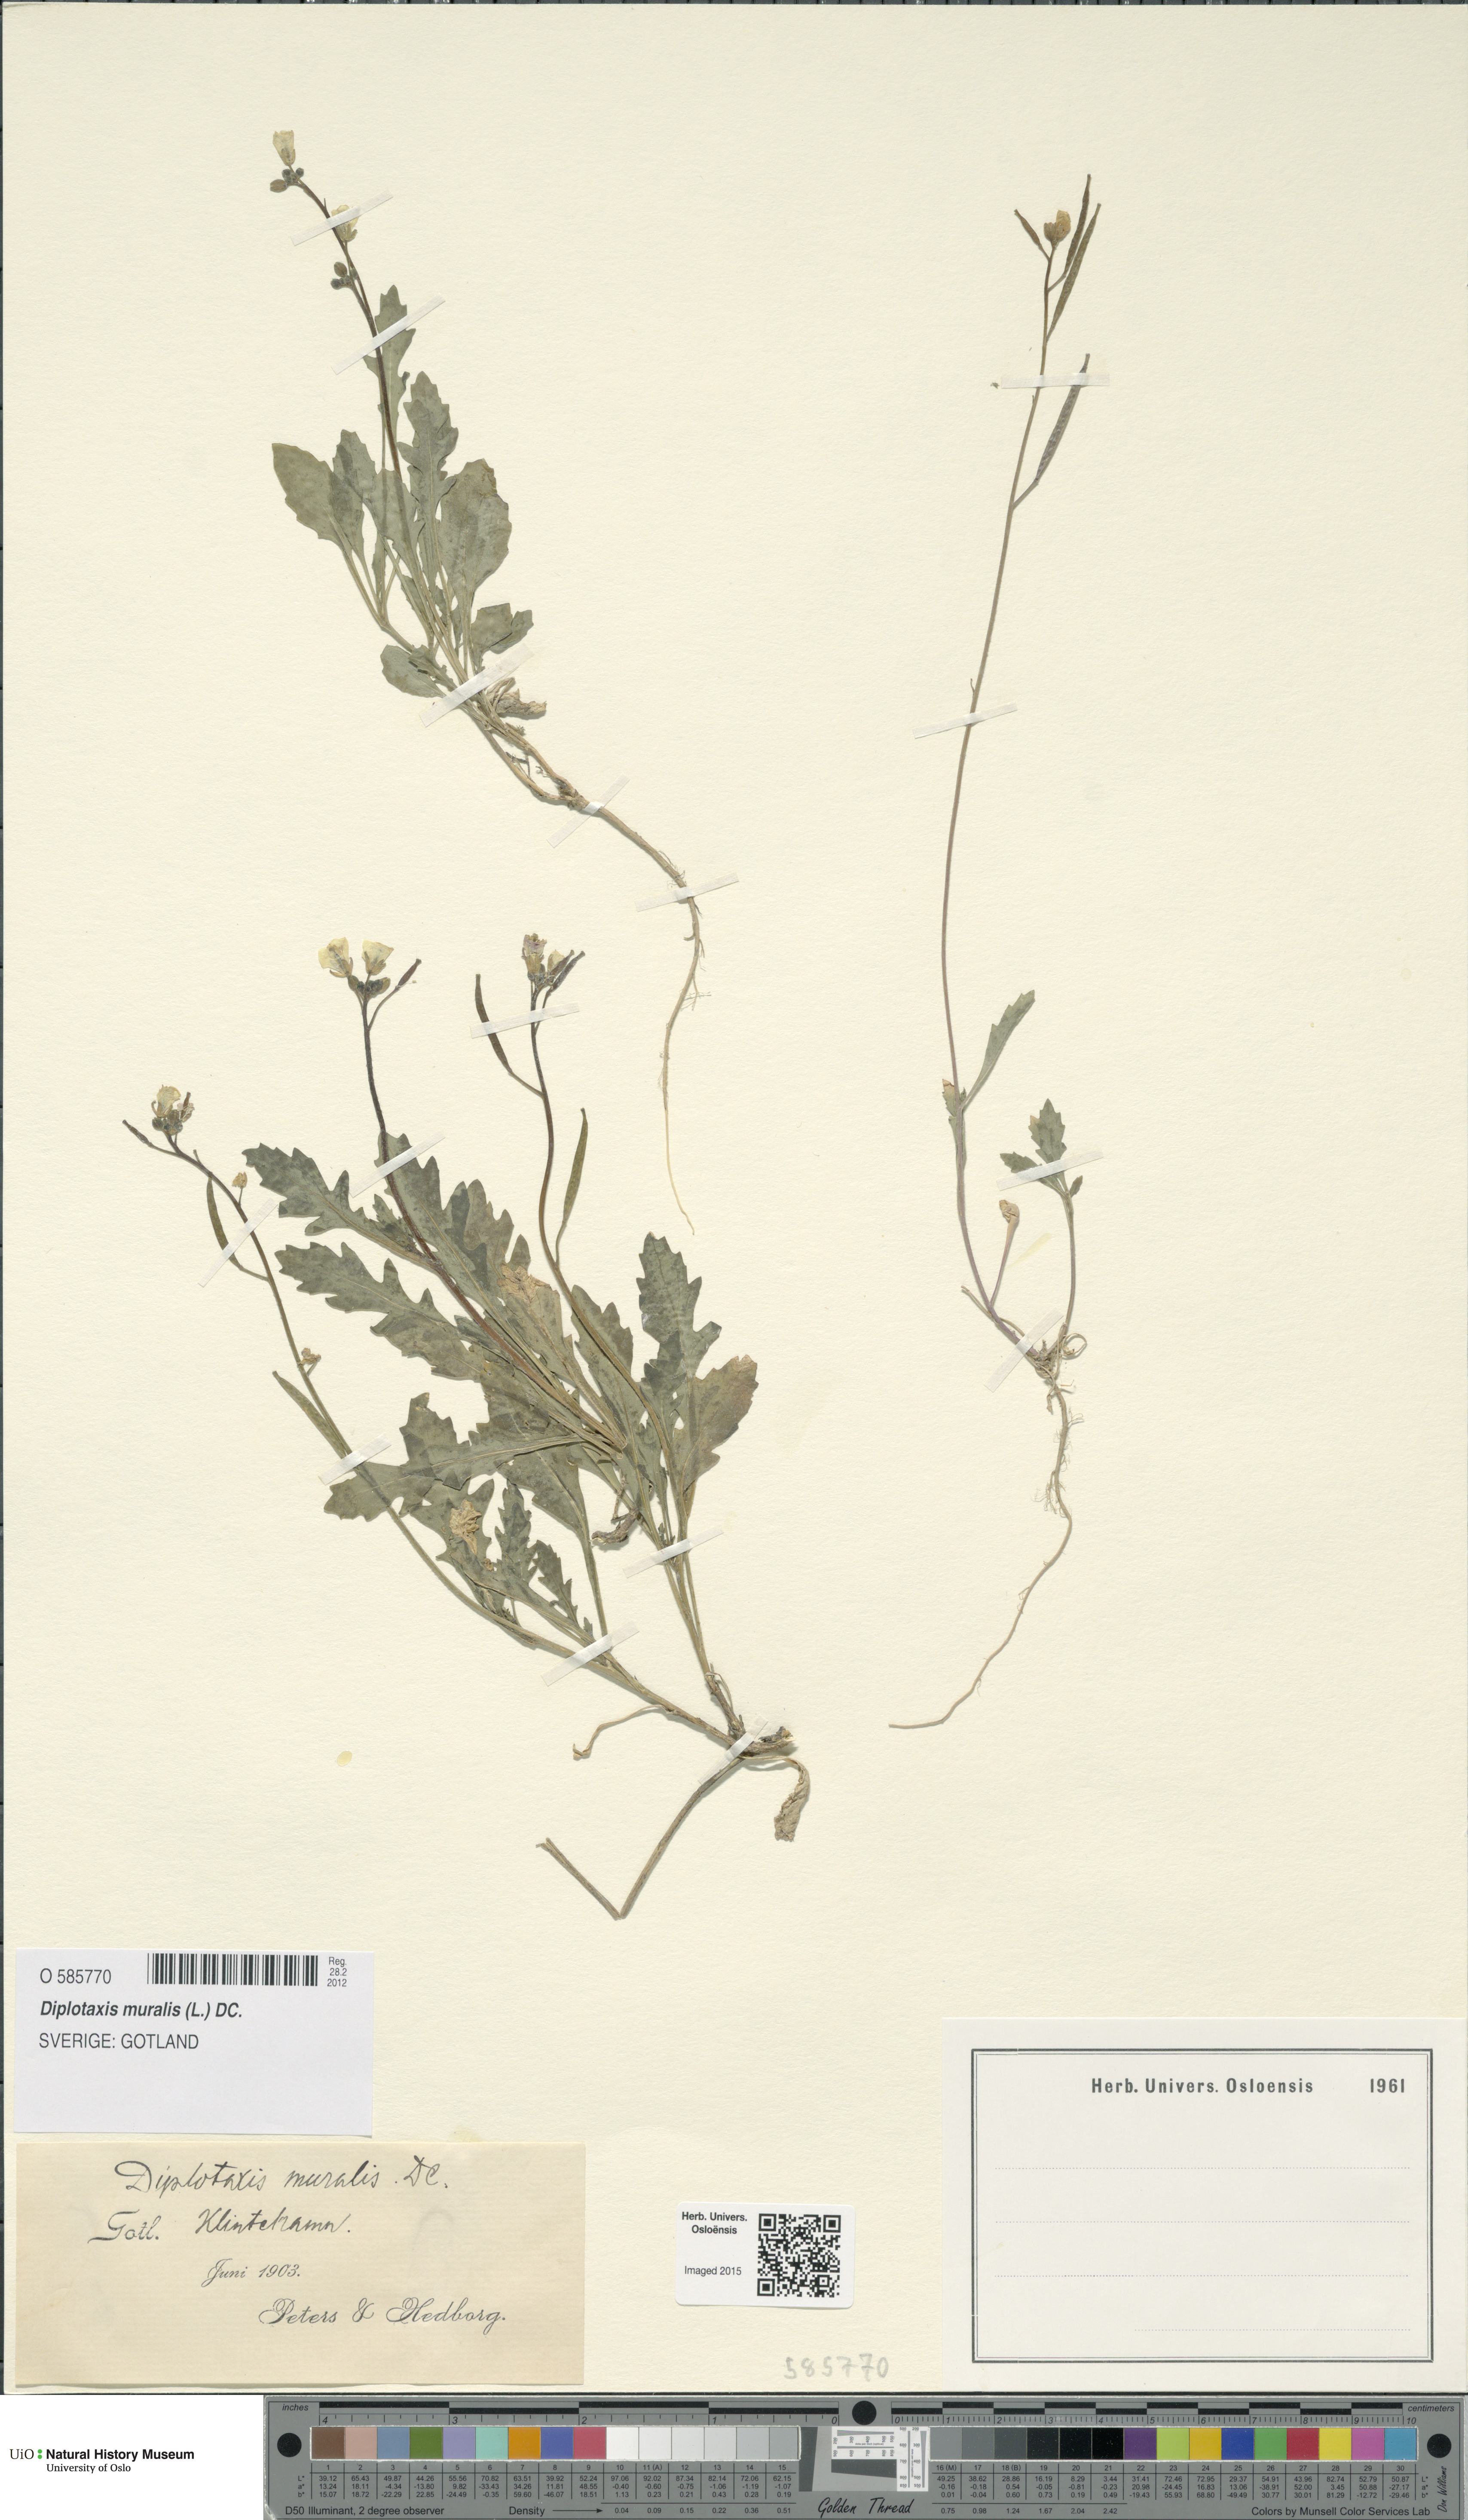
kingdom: Plantae
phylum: Tracheophyta
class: Magnoliopsida
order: Brassicales
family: Brassicaceae
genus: Diplotaxis
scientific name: Diplotaxis muralis
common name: Annual wall-rocket
